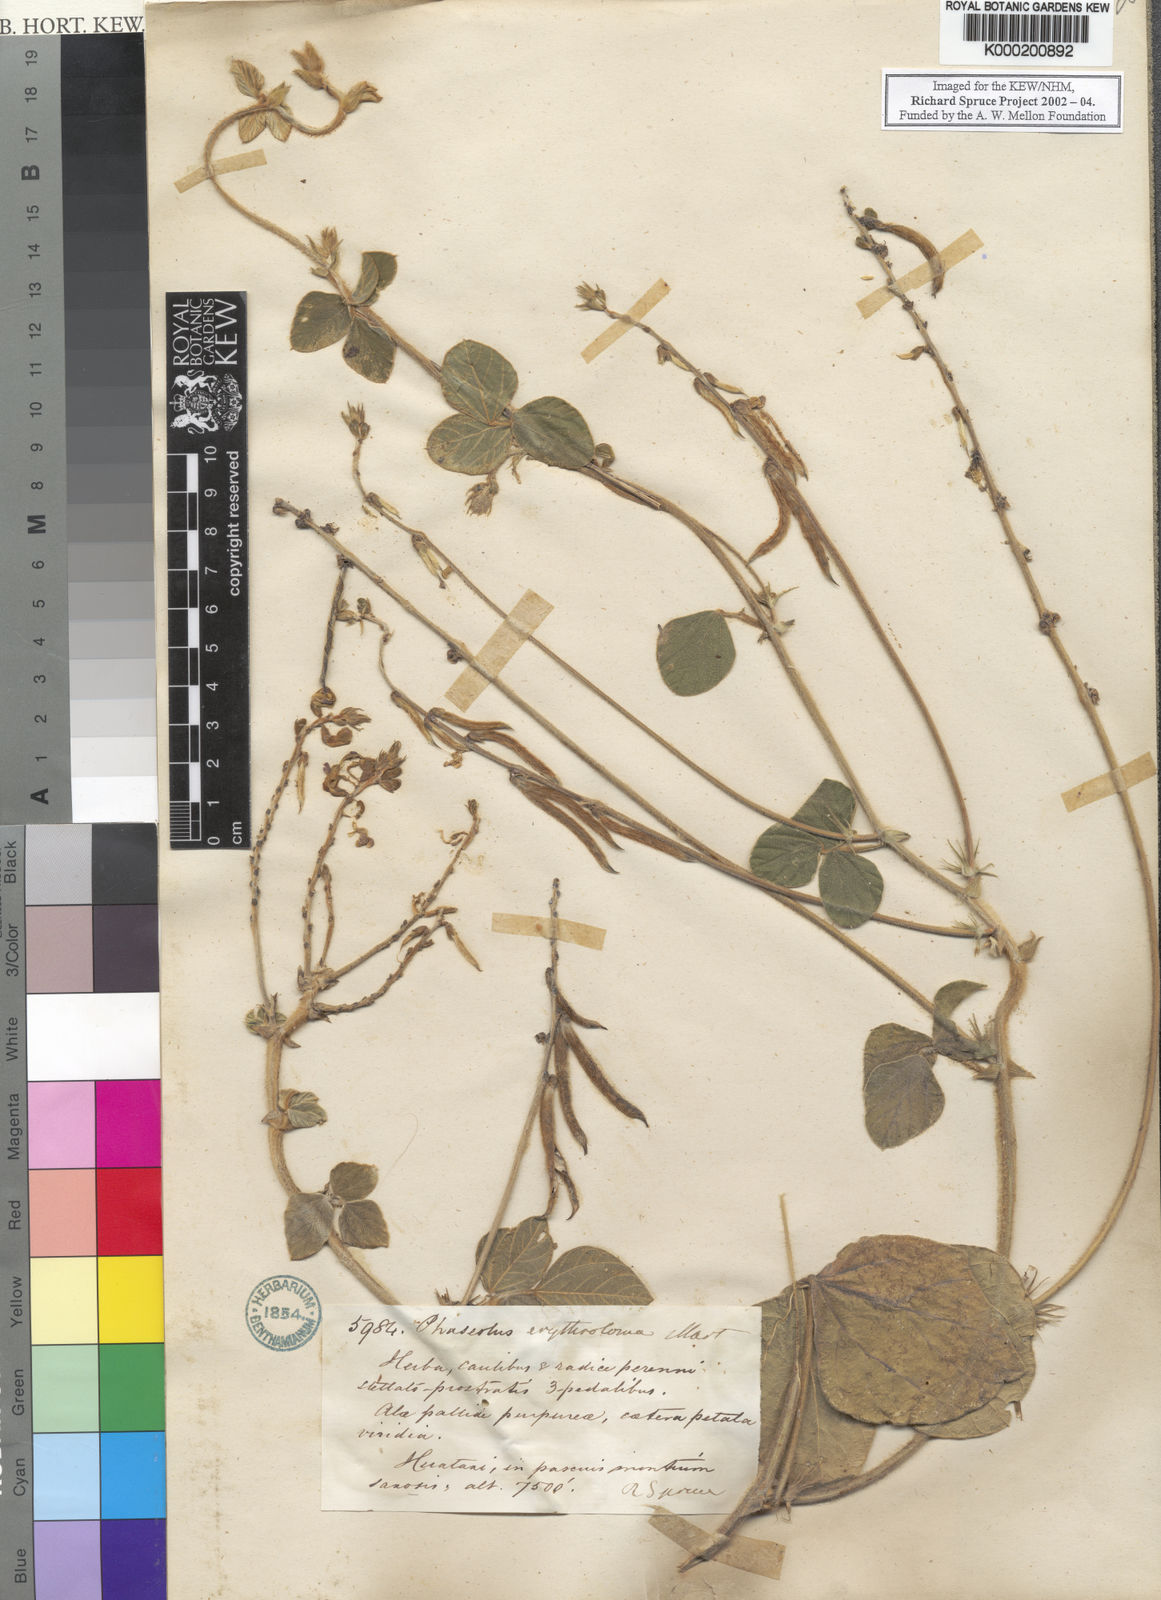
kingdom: Plantae
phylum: Tracheophyta
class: Magnoliopsida
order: Fabales
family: Fabaceae
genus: Macroptilium
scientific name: Macroptilium erythroloma
